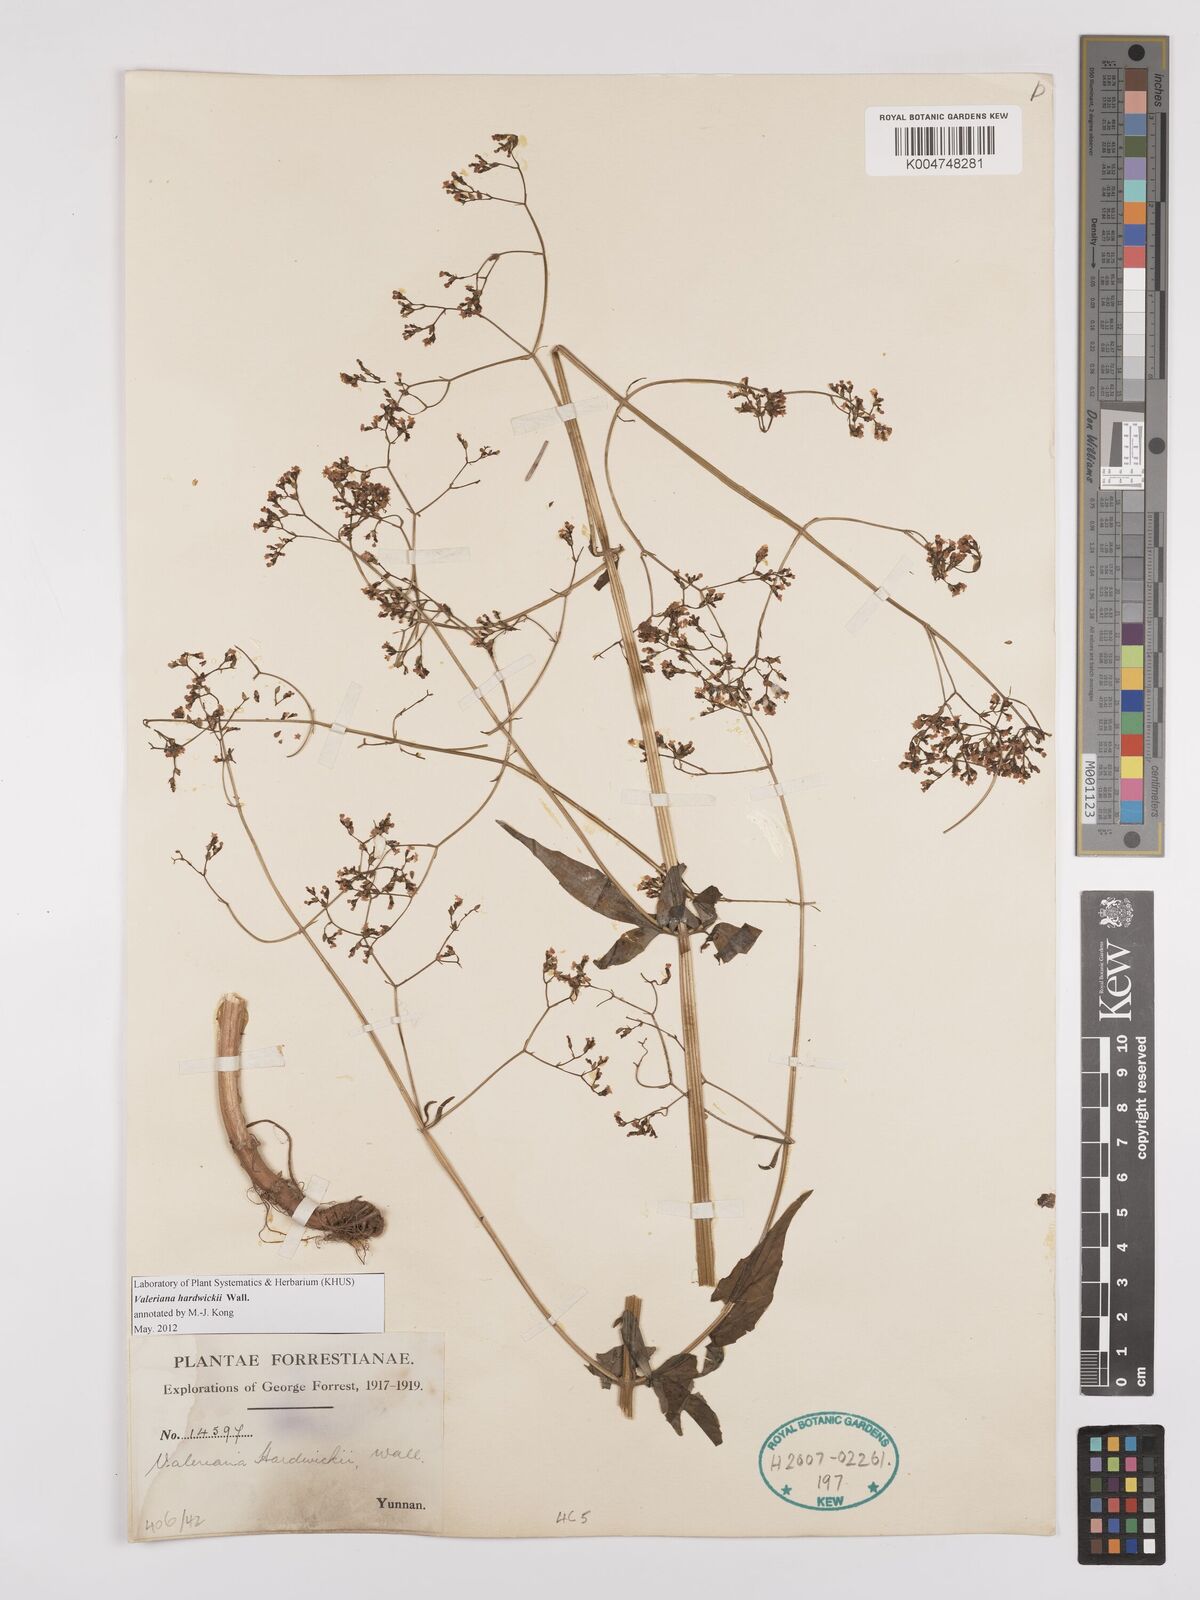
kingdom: Plantae
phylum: Tracheophyta
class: Magnoliopsida
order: Dipsacales
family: Caprifoliaceae
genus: Valeriana
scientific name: Valeriana hardwickei
